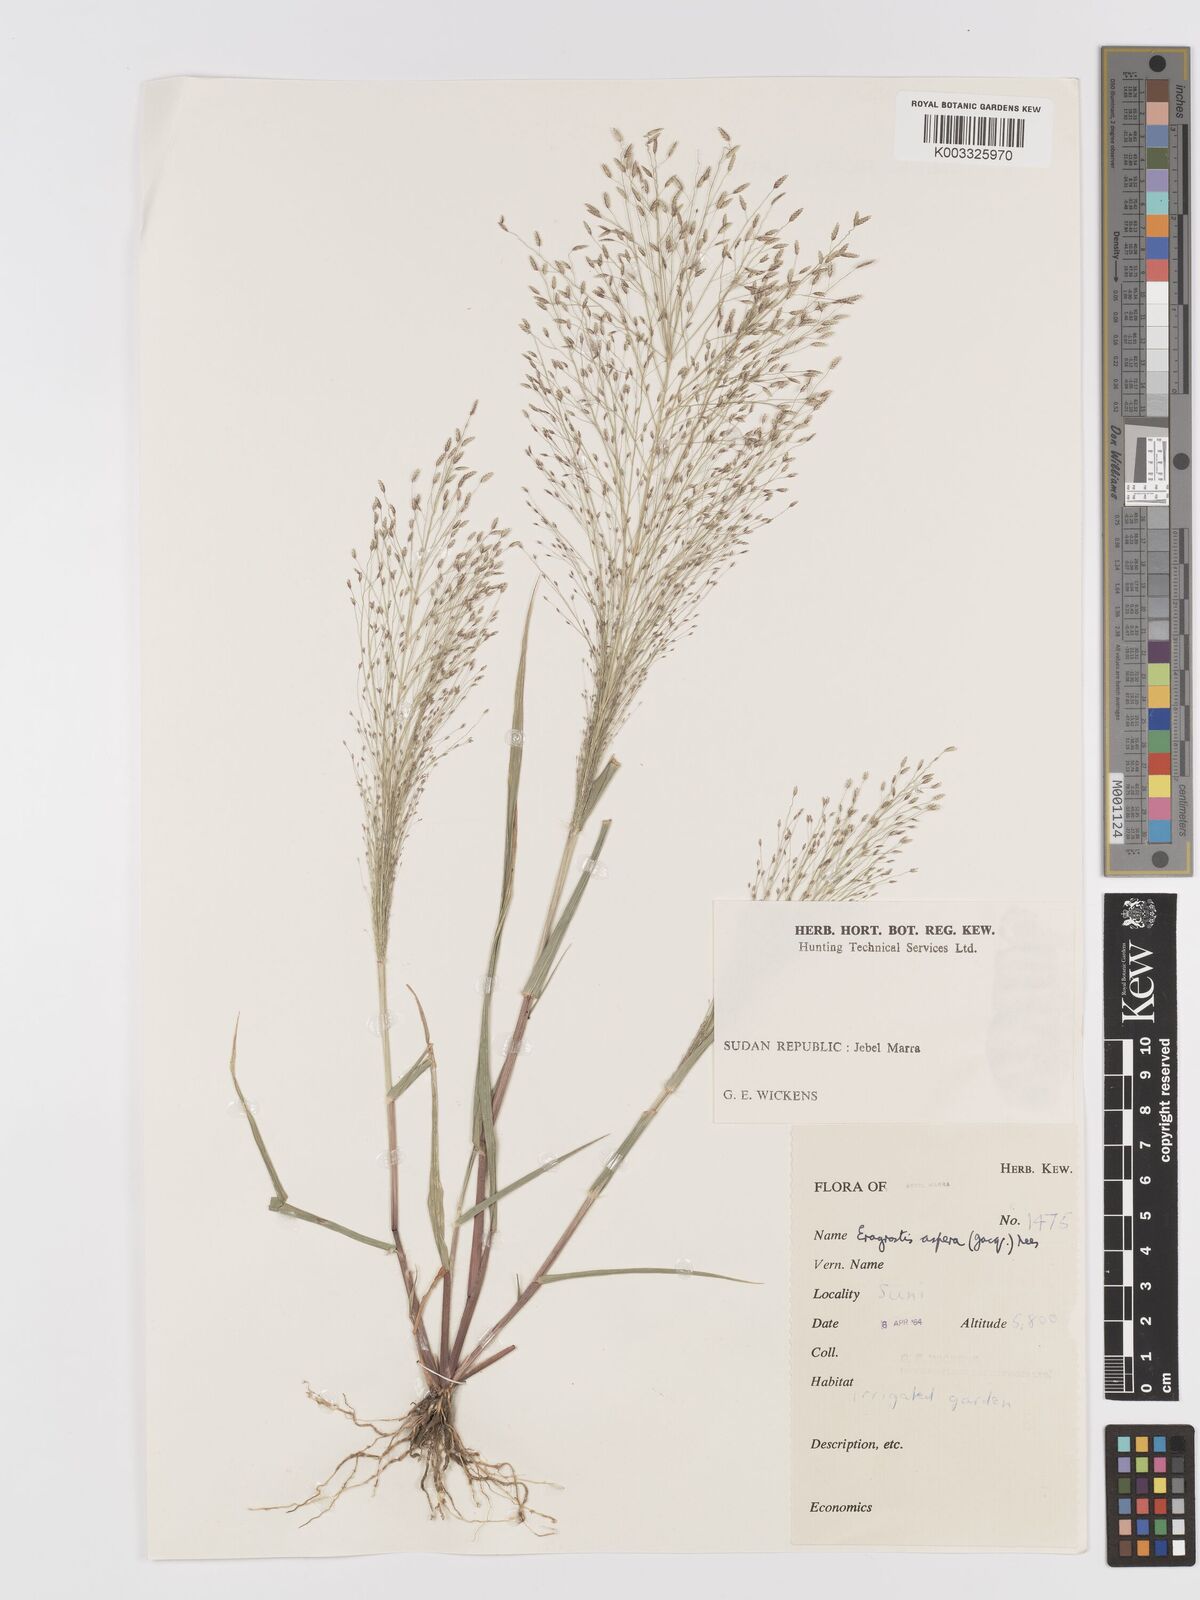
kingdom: Plantae
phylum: Tracheophyta
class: Liliopsida
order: Poales
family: Poaceae
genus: Eragrostis
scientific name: Eragrostis aspera
